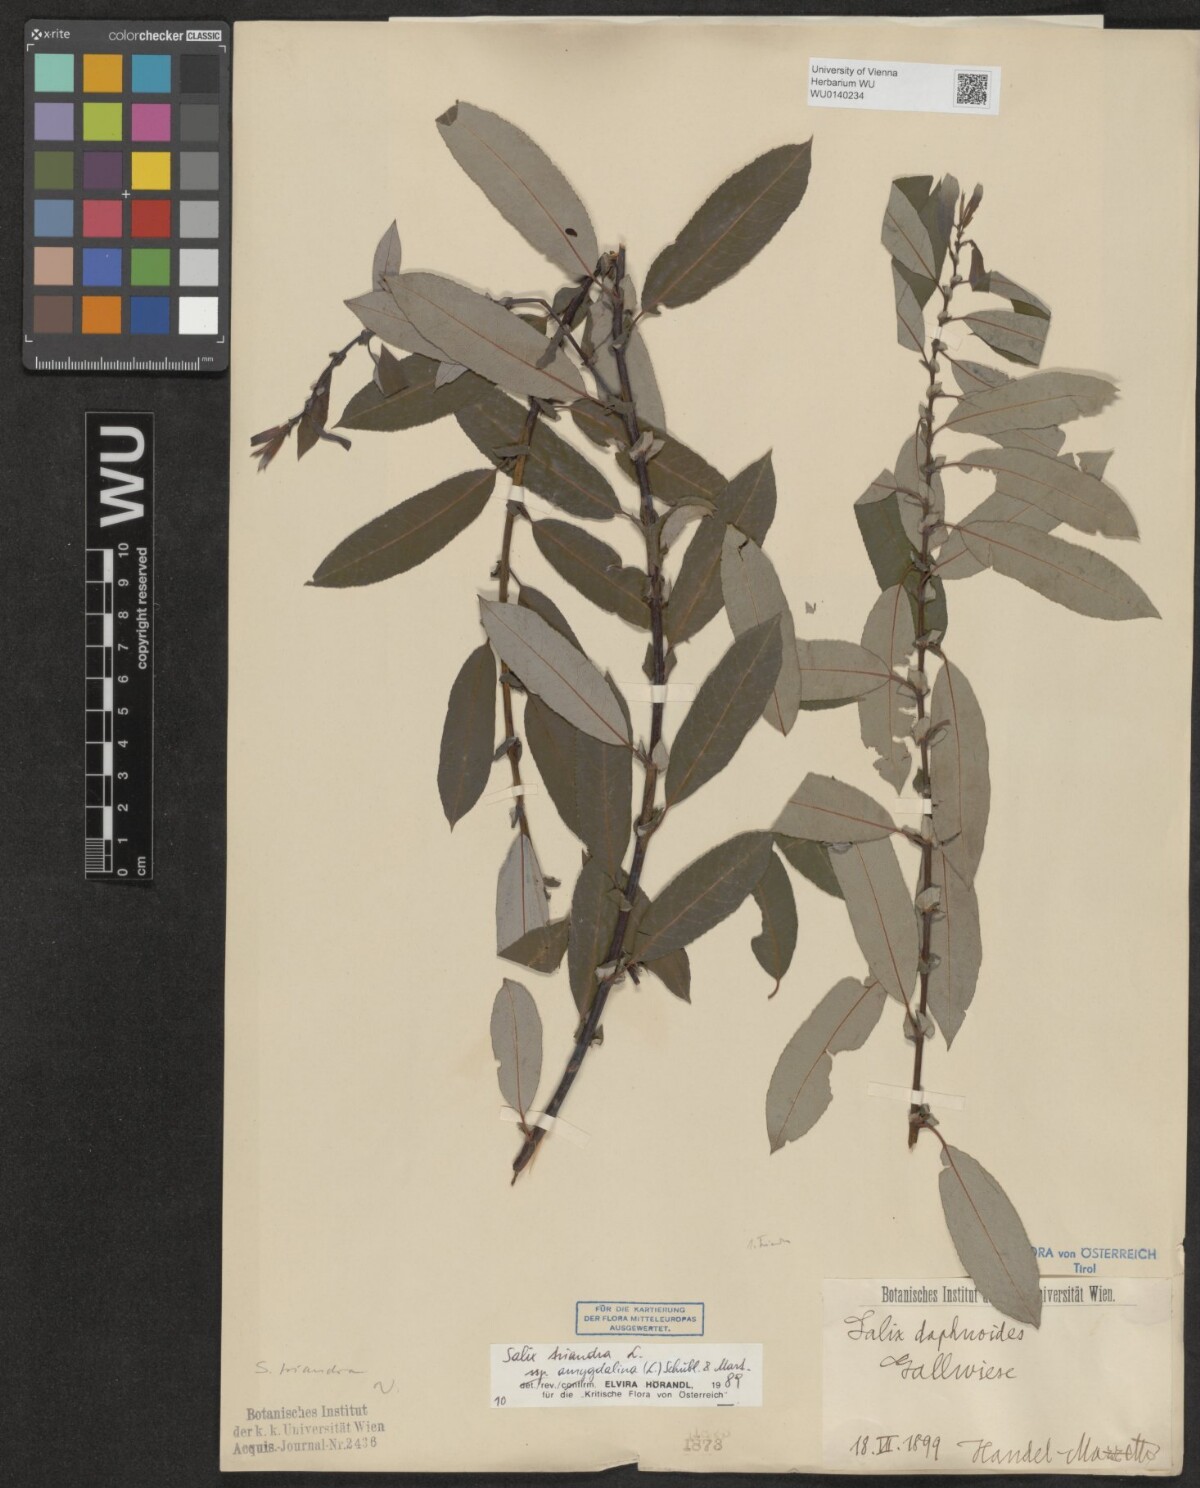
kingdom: Plantae
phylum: Tracheophyta
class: Magnoliopsida
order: Malpighiales
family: Salicaceae
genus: Salix
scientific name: Salix triandra
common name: Almond willow
